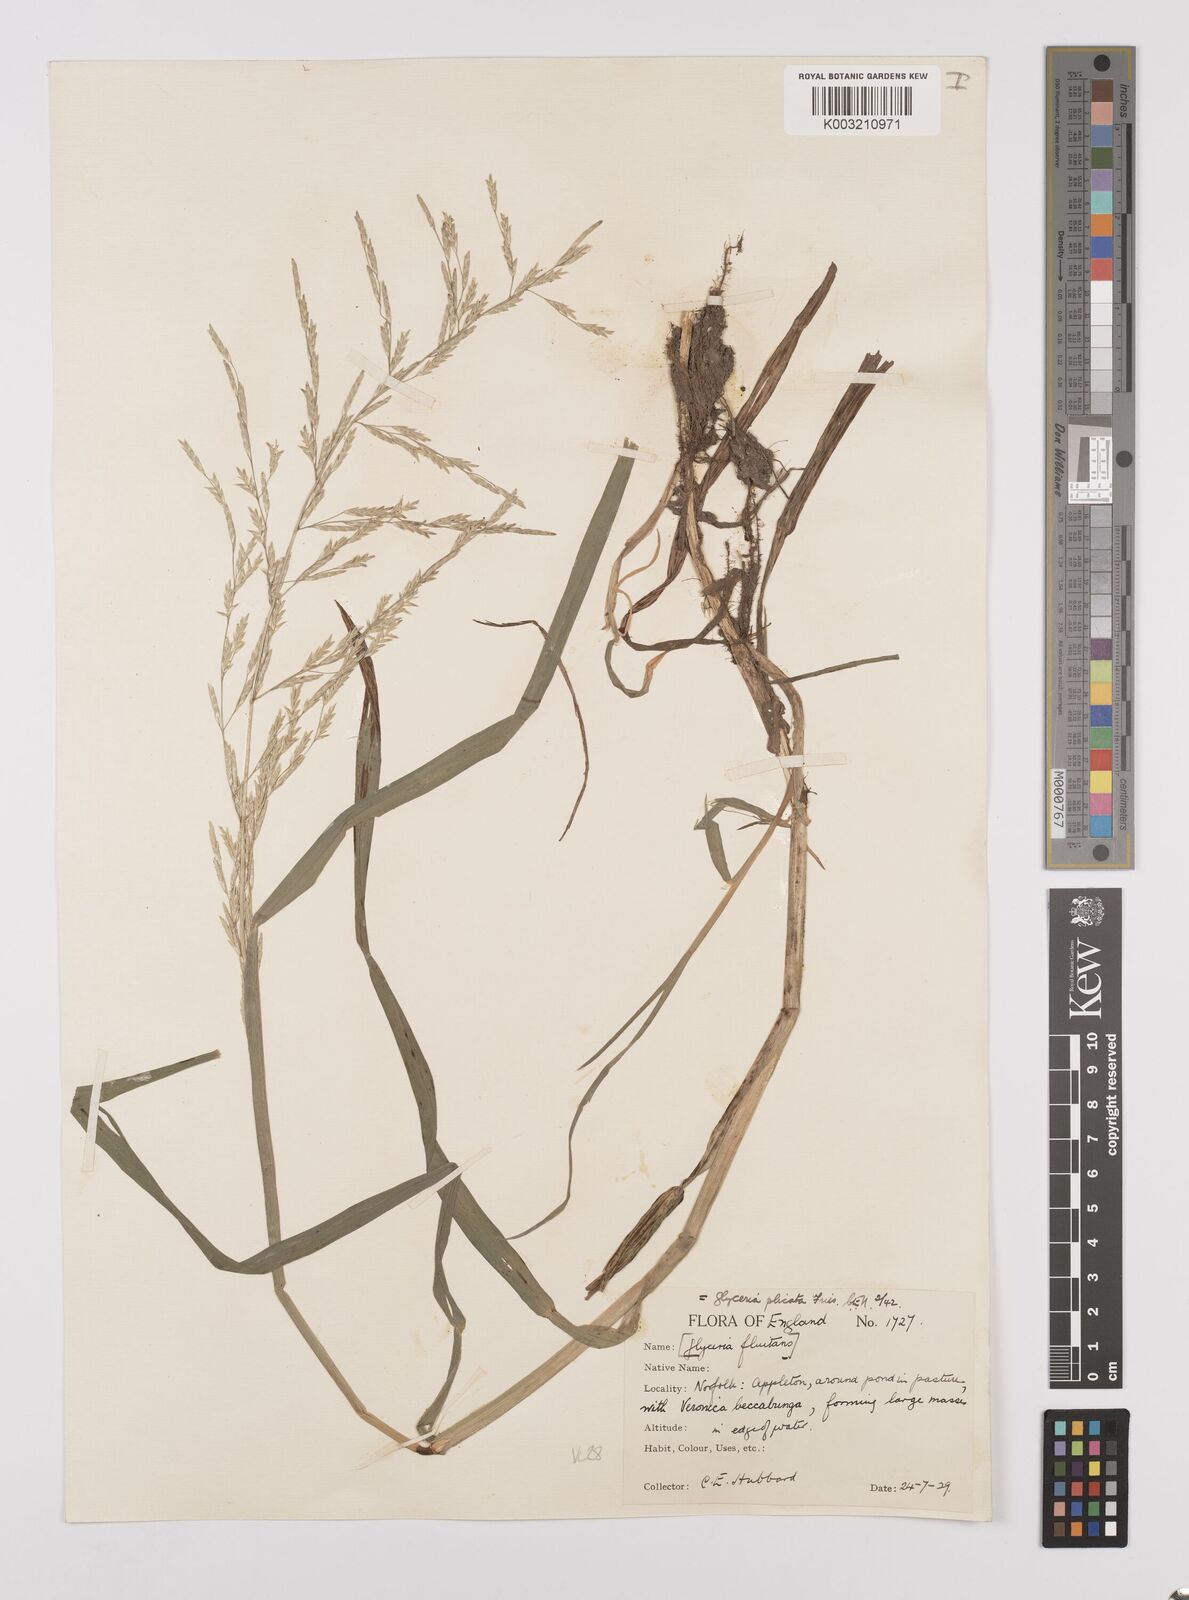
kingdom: Plantae
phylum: Tracheophyta
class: Liliopsida
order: Poales
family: Poaceae
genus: Glyceria
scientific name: Glyceria notata
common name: Plicate sweet-grass
